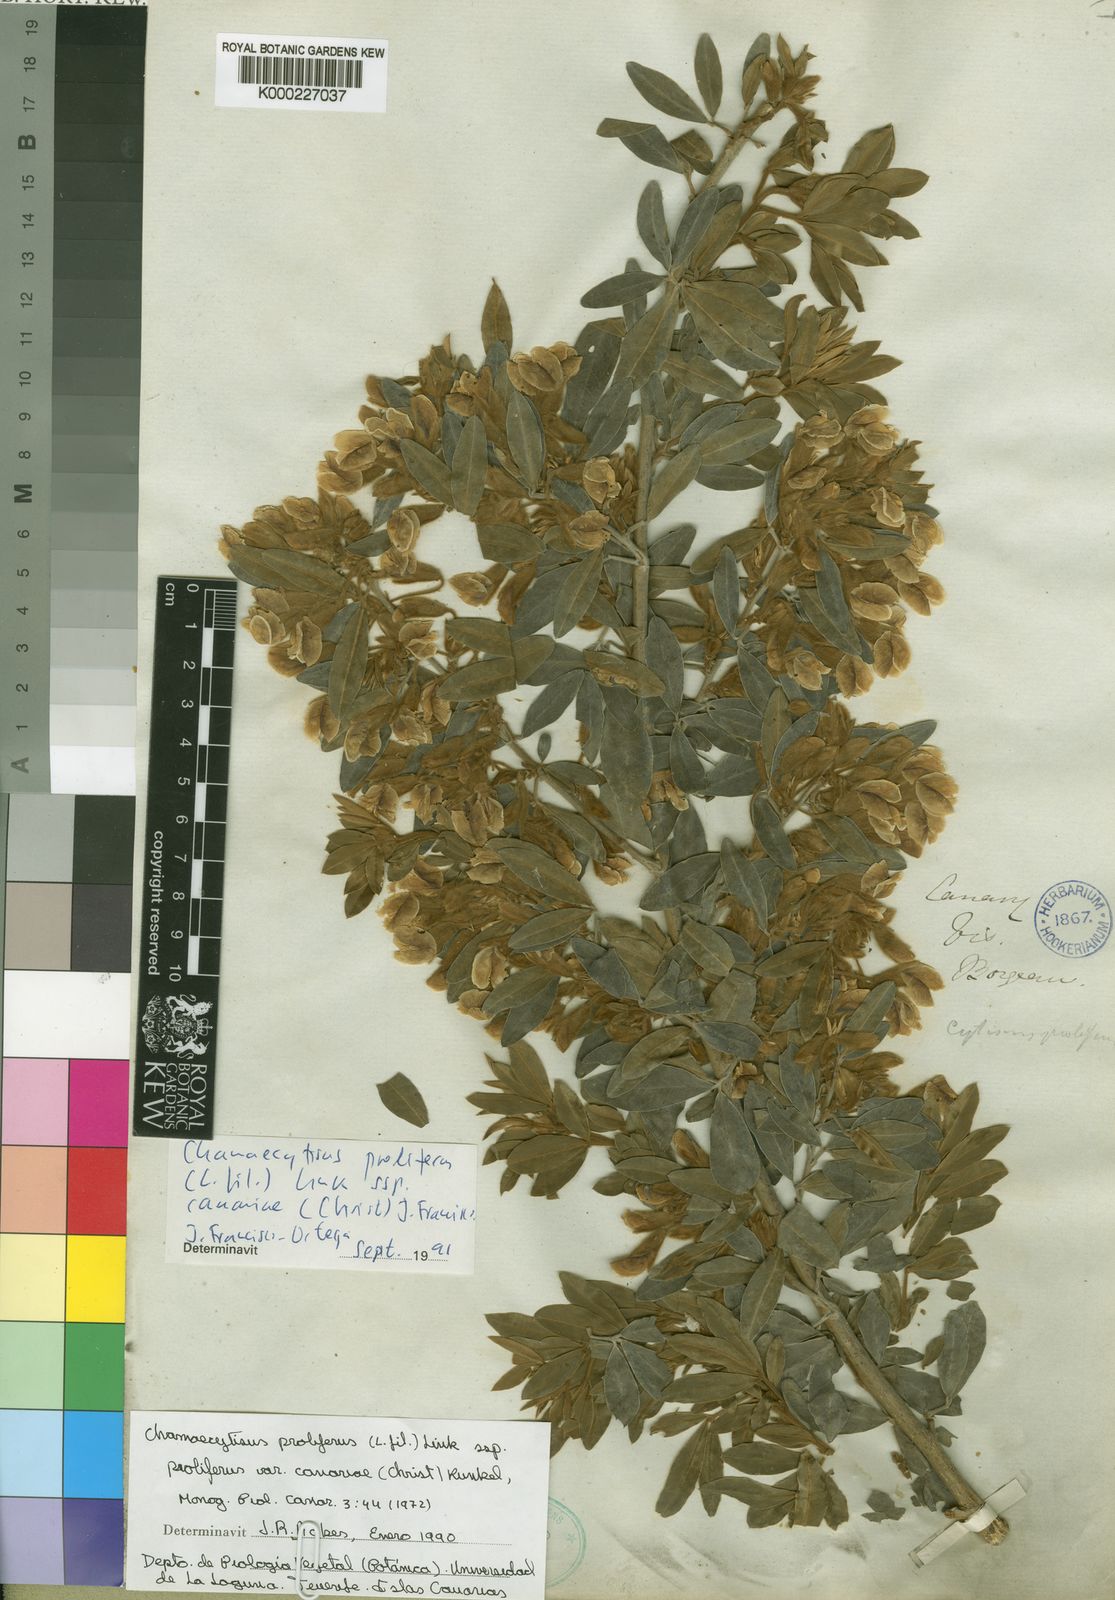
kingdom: Plantae
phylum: Tracheophyta
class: Magnoliopsida
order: Fabales
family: Fabaceae
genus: Chamaecytisus
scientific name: Chamaecytisus prolifer
